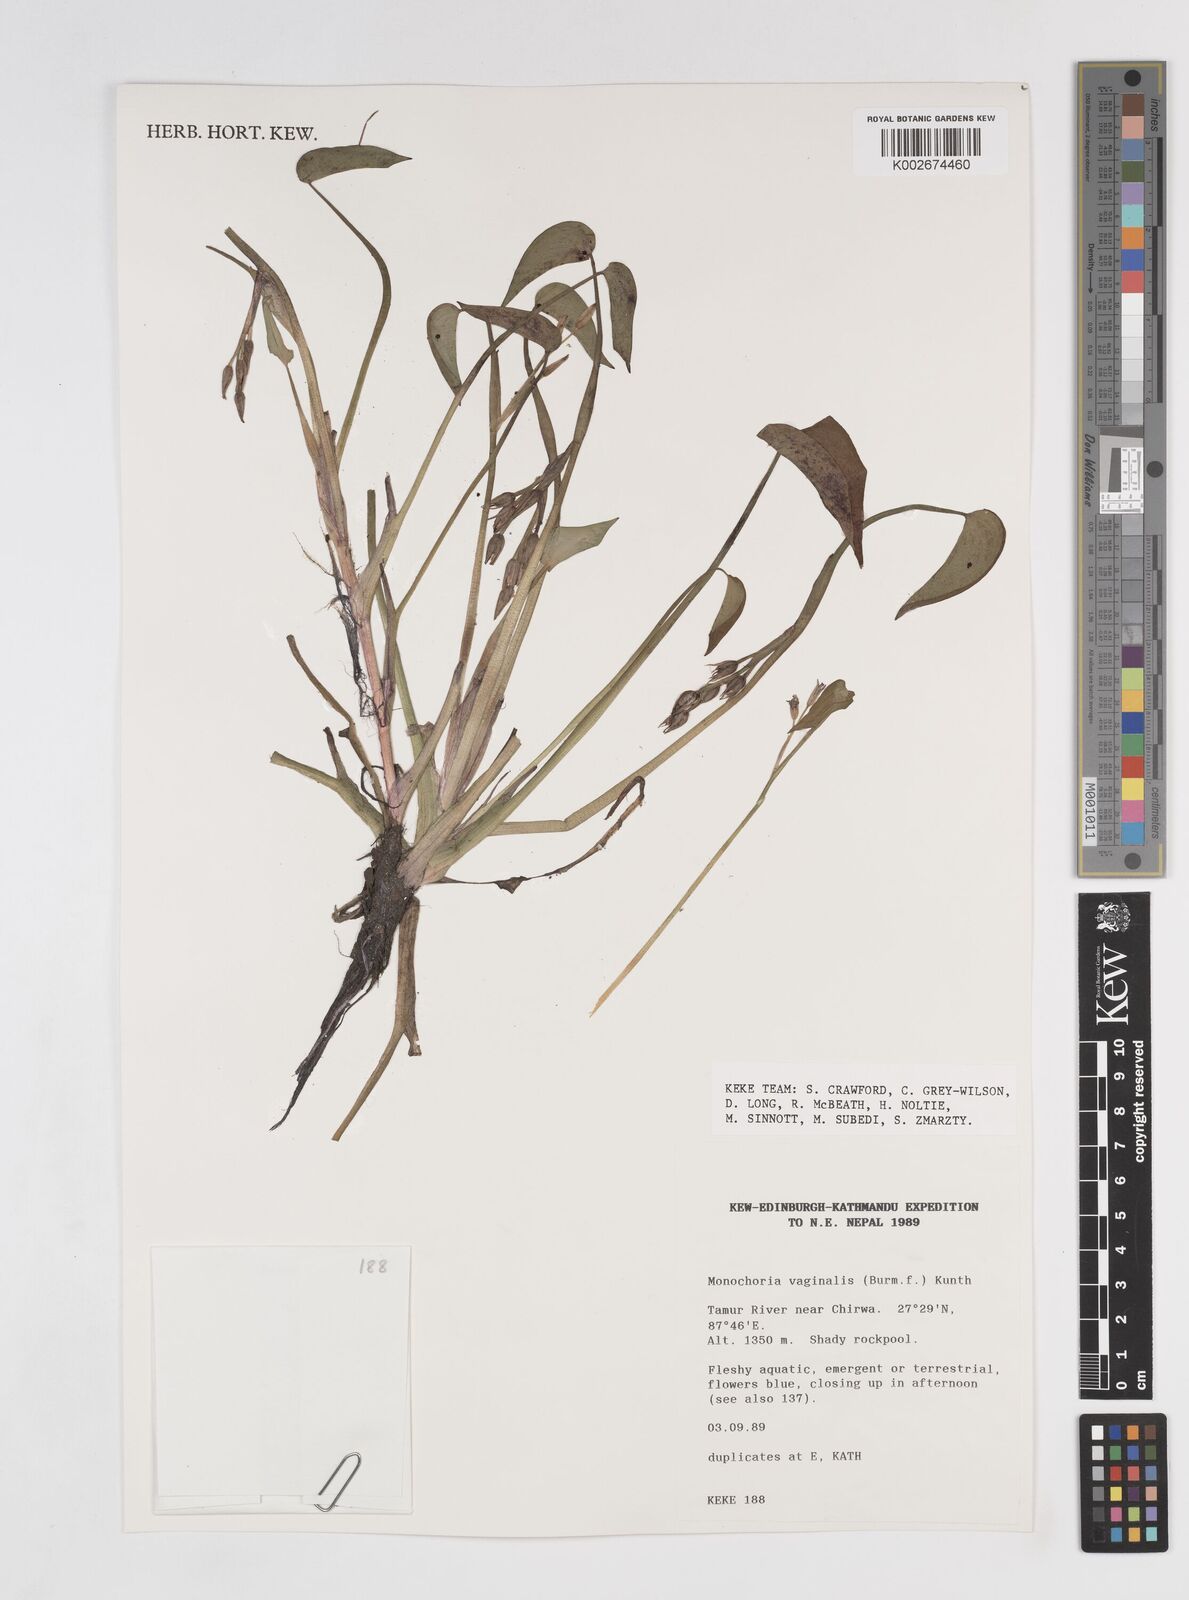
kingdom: Plantae
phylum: Tracheophyta
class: Liliopsida
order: Commelinales
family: Pontederiaceae
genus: Pontederia
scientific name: Pontederia vaginalis
